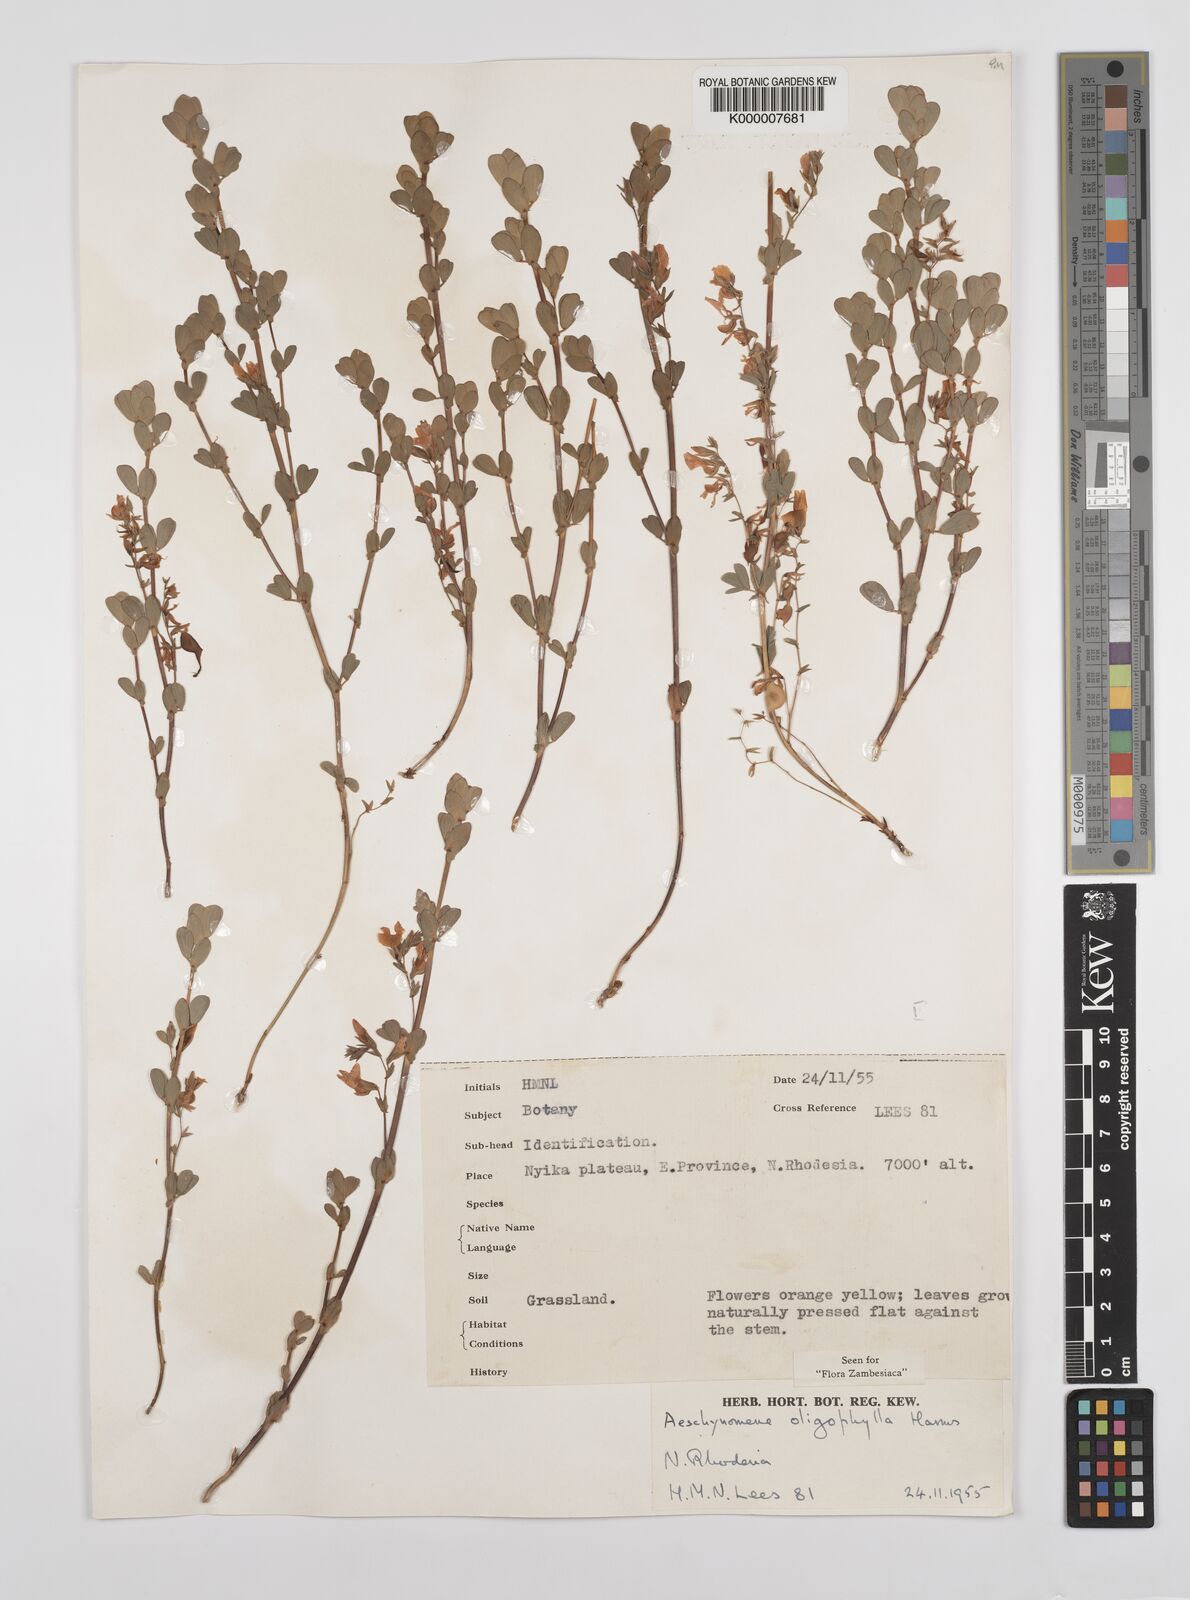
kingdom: Plantae
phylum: Tracheophyta
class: Magnoliopsida
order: Fabales
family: Fabaceae
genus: Aeschynomene
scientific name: Aeschynomene oligophylla
